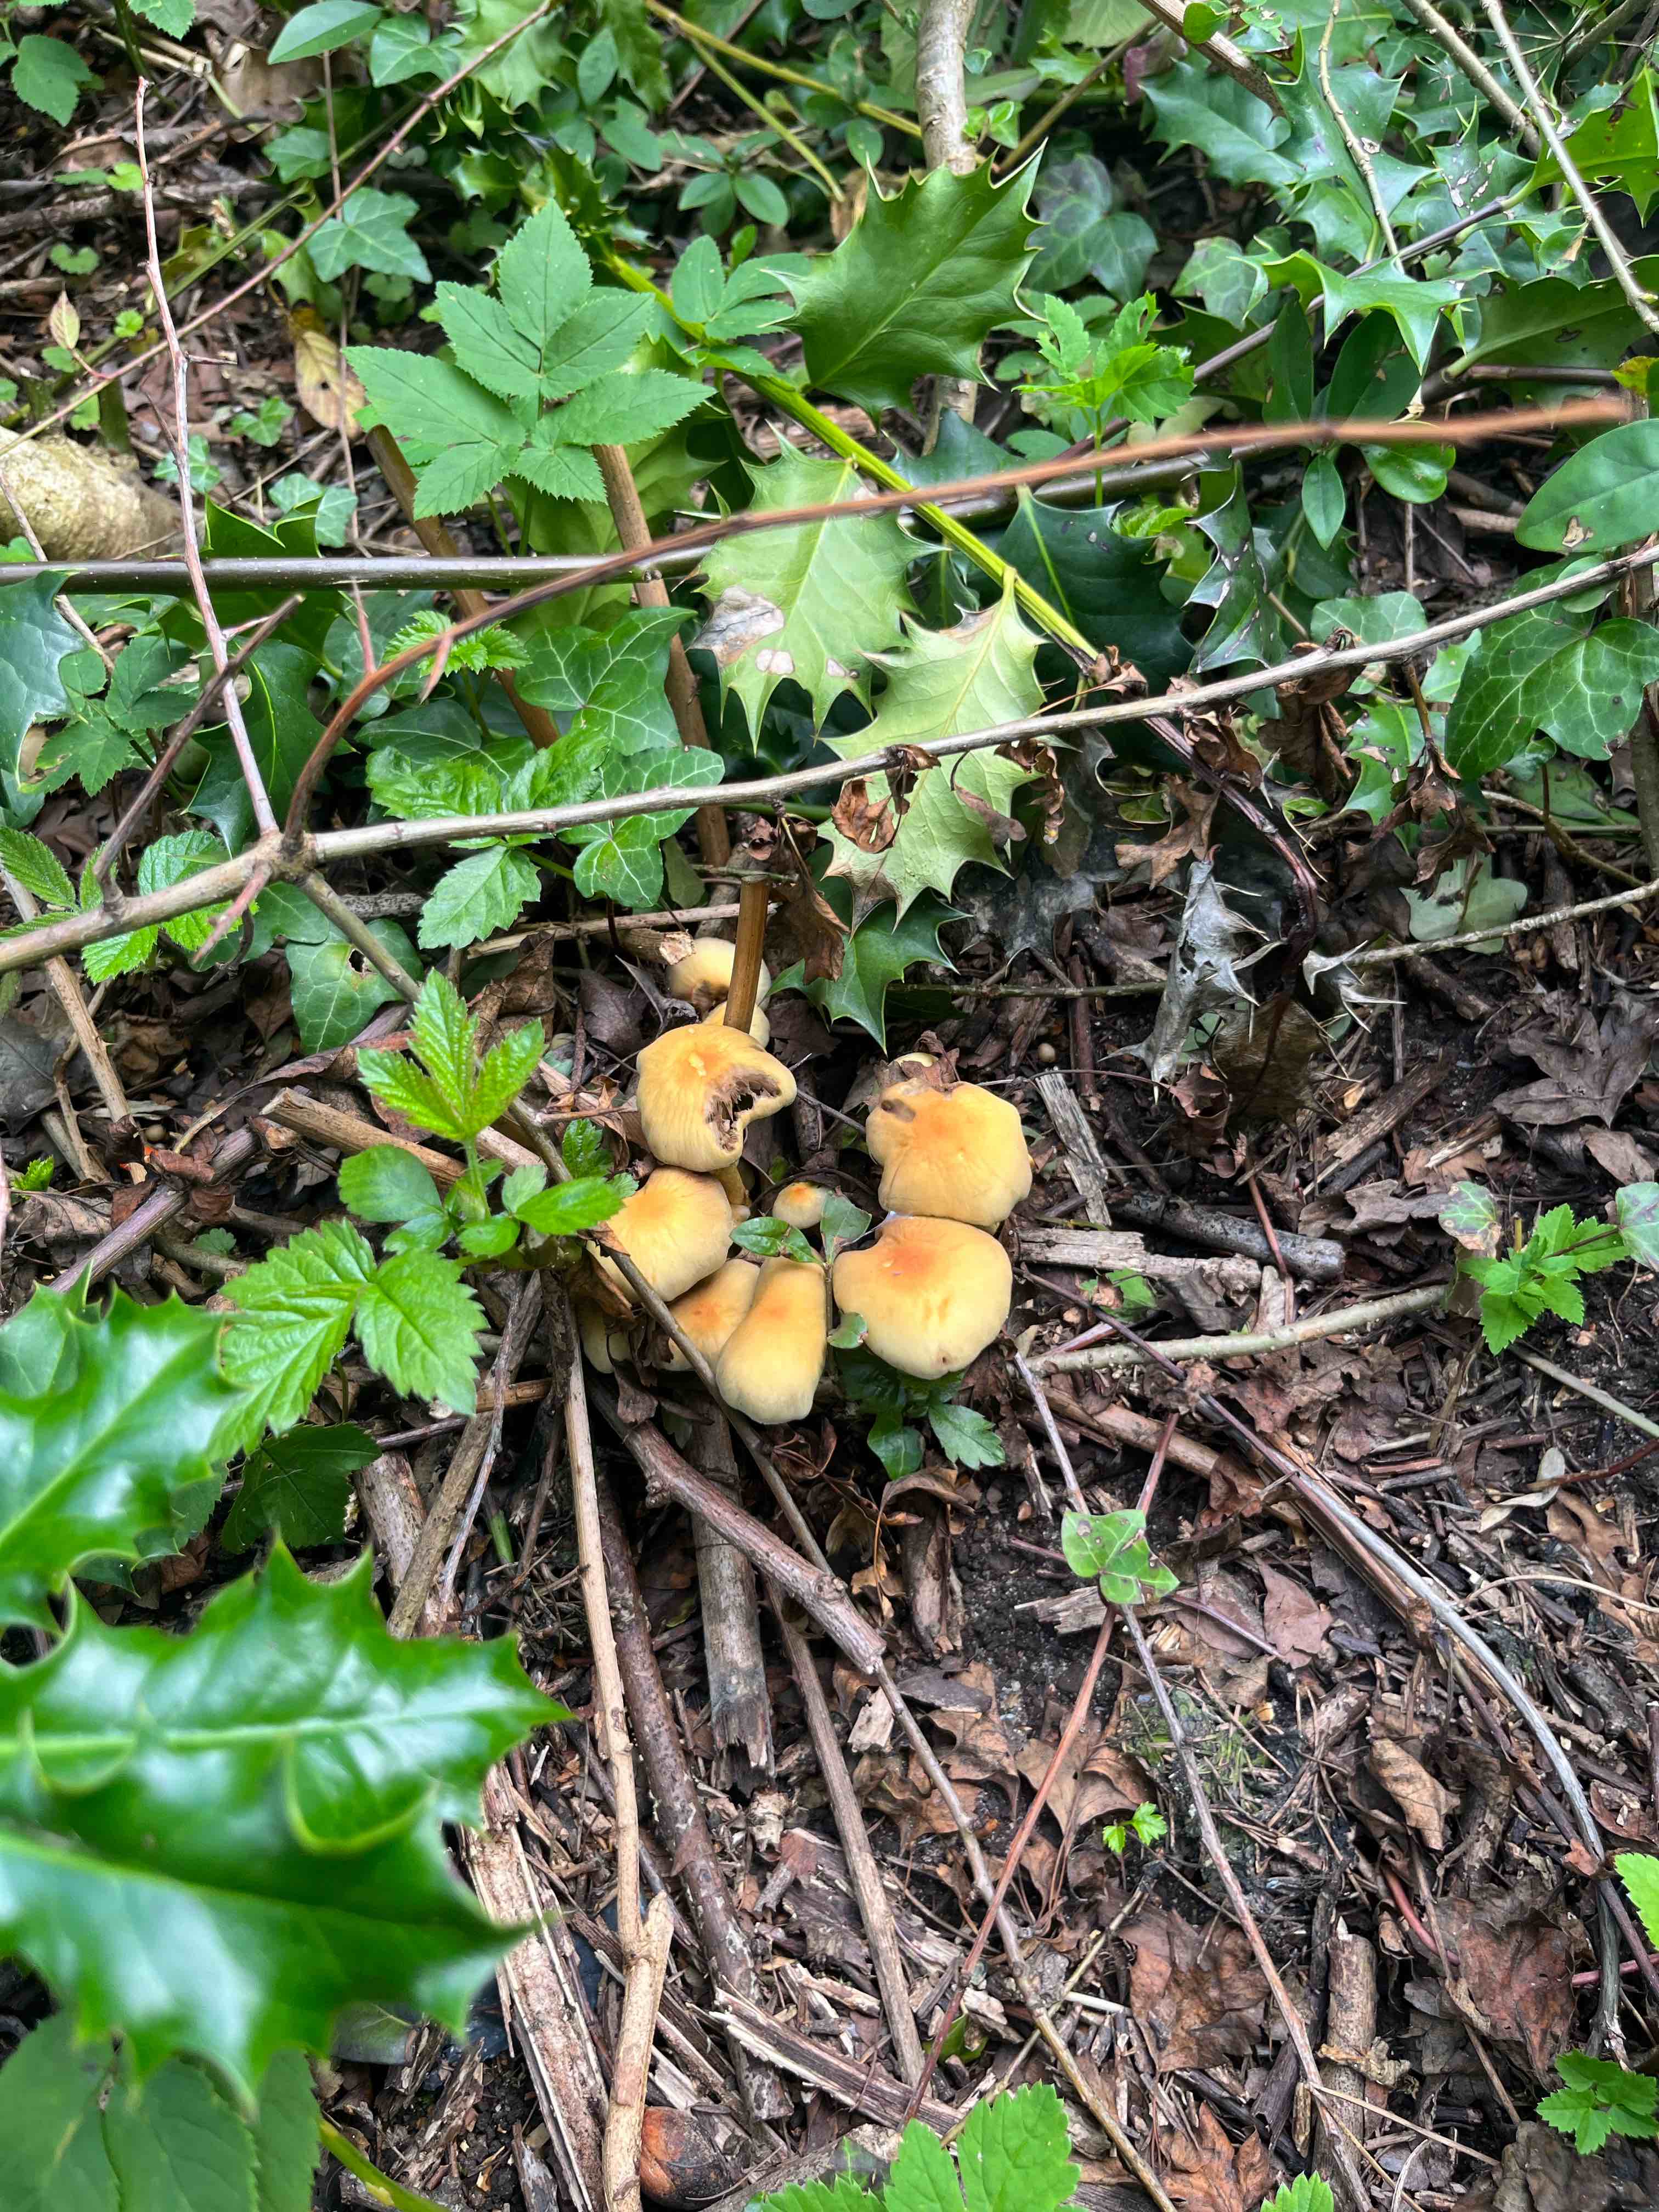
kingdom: Fungi
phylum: Basidiomycota
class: Agaricomycetes
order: Agaricales
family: Strophariaceae
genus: Hypholoma
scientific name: Hypholoma fasciculare
